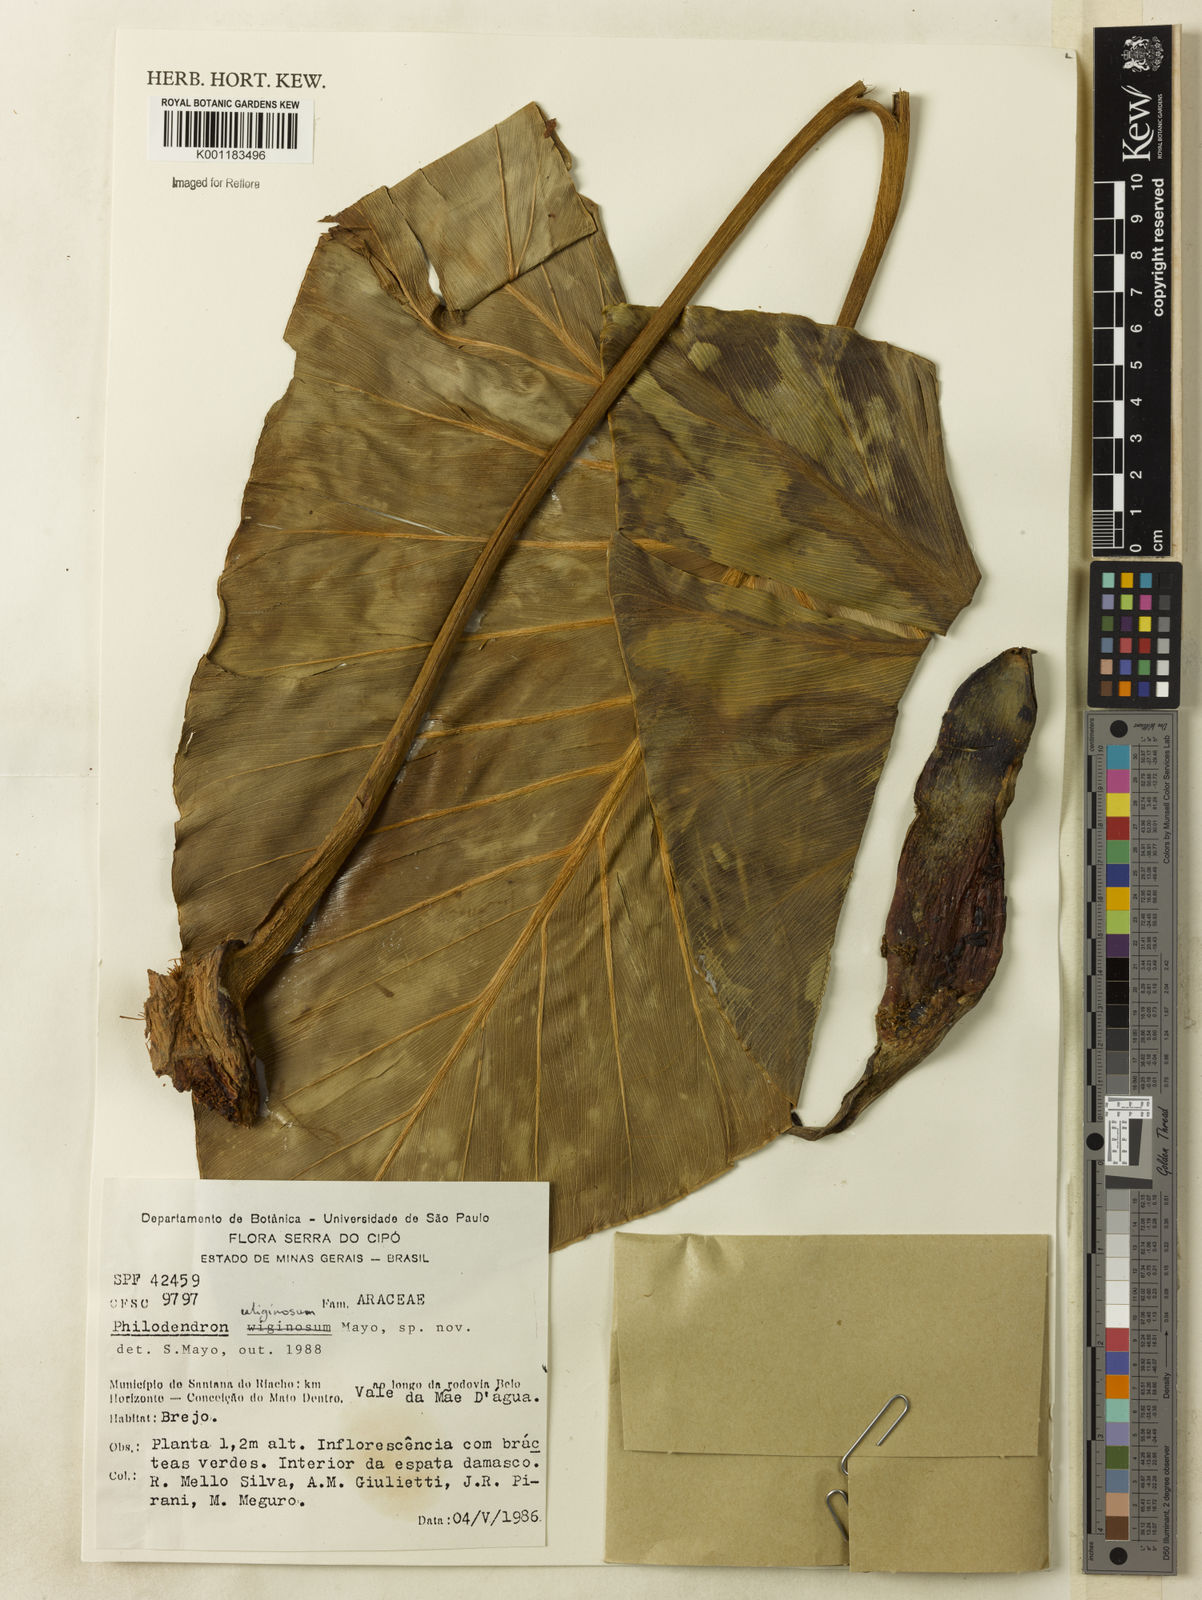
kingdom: Plantae
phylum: Tracheophyta
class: Liliopsida
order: Alismatales
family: Araceae
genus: Thaumatophyllum
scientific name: Thaumatophyllum uliginosum
